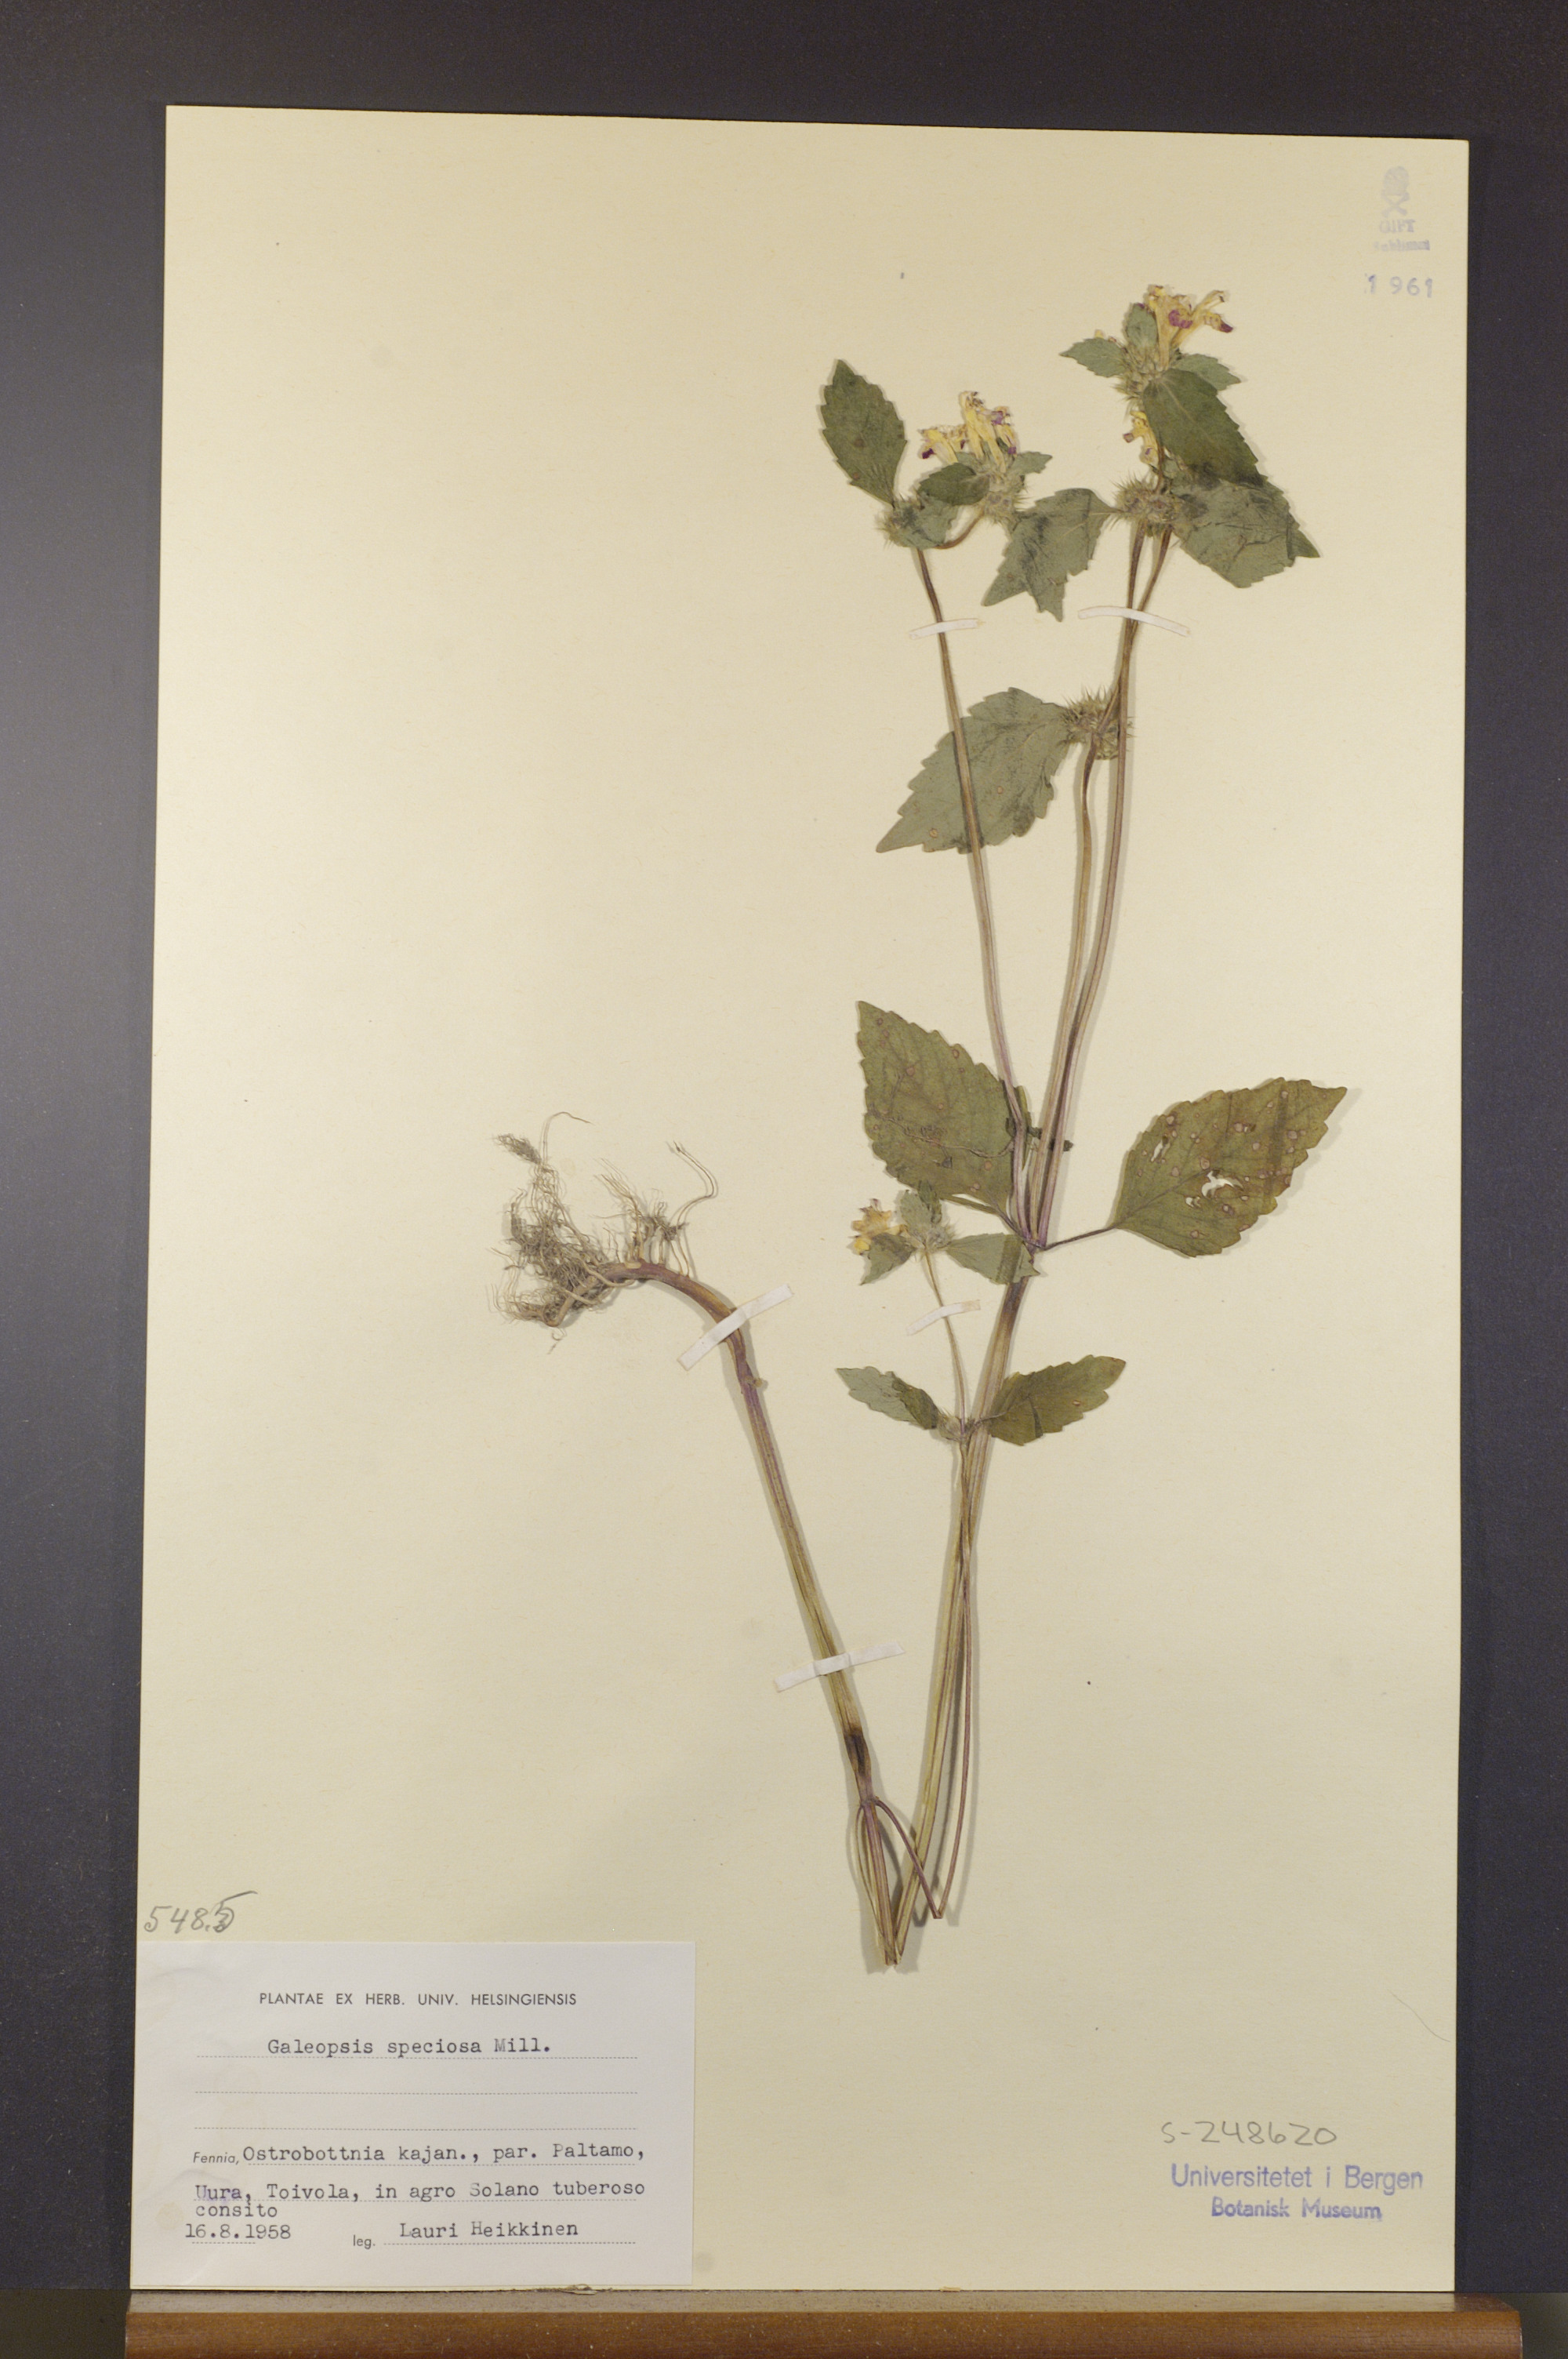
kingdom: Plantae
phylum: Tracheophyta
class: Magnoliopsida
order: Lamiales
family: Lamiaceae
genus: Galeopsis
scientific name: Galeopsis speciosa
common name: Large-flowered hemp-nettle
